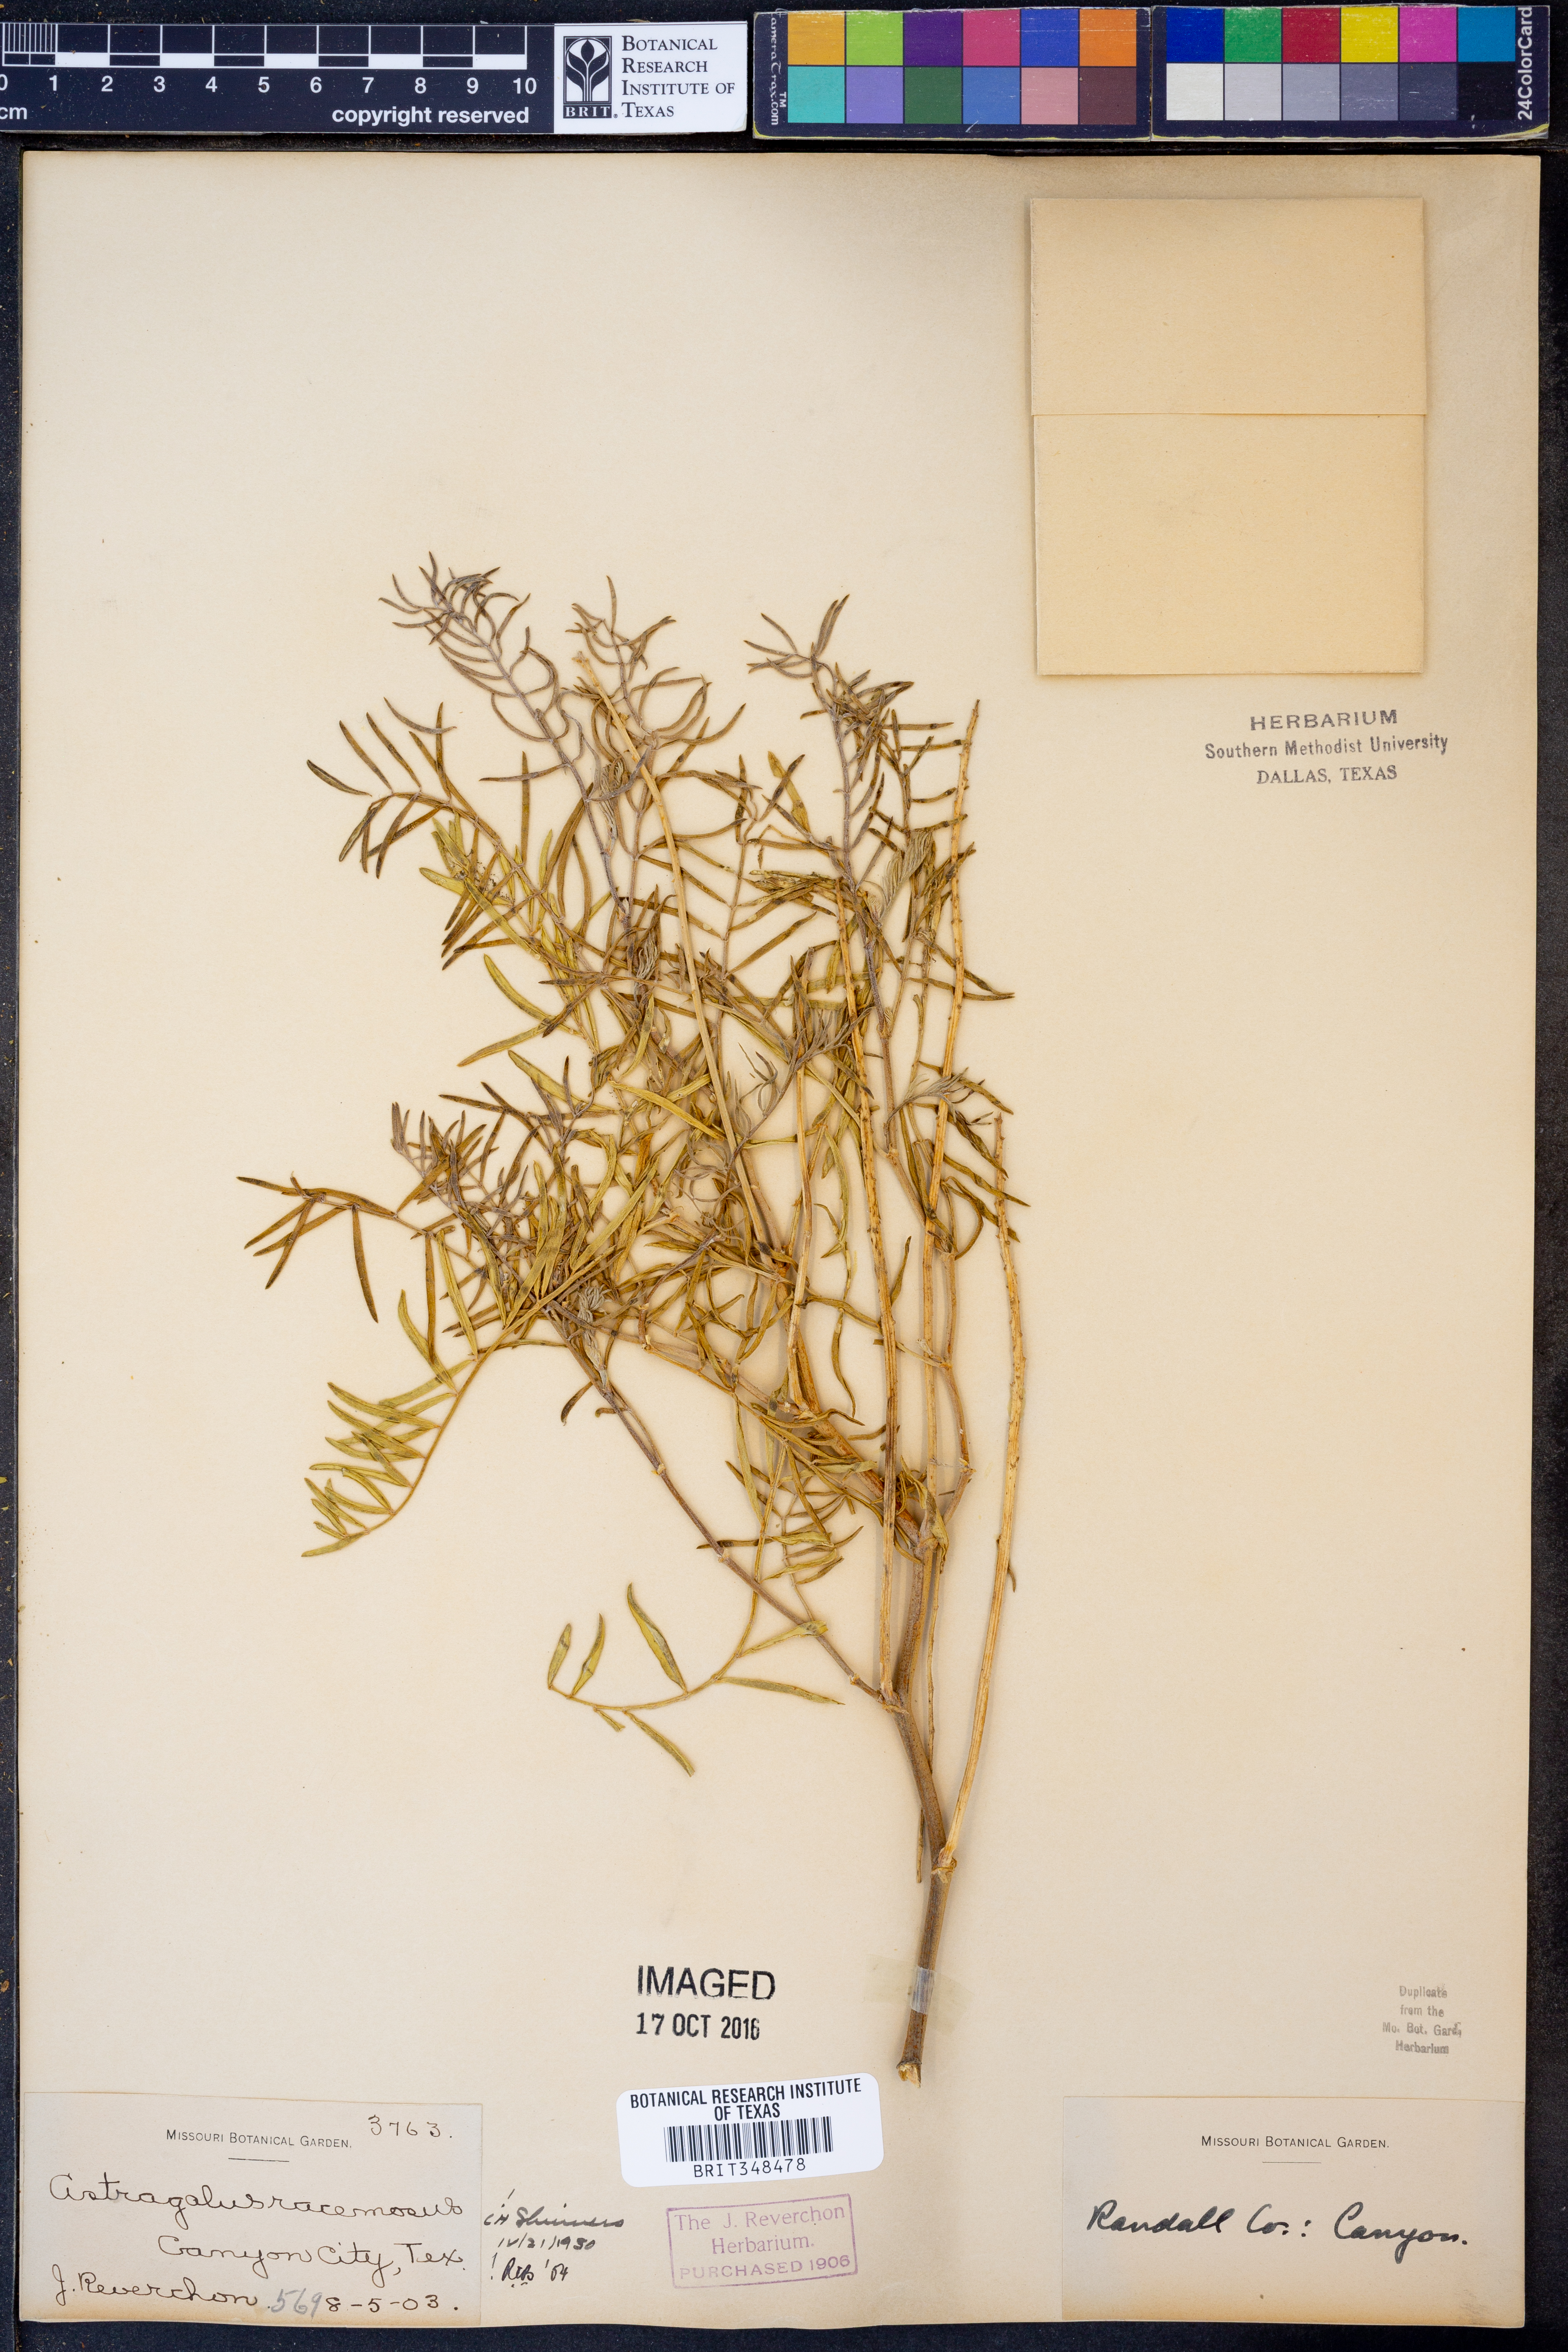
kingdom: Plantae
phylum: Tracheophyta
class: Magnoliopsida
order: Fabales
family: Fabaceae
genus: Astragalus
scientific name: Astragalus racemosus
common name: Alkali milk-vetch
